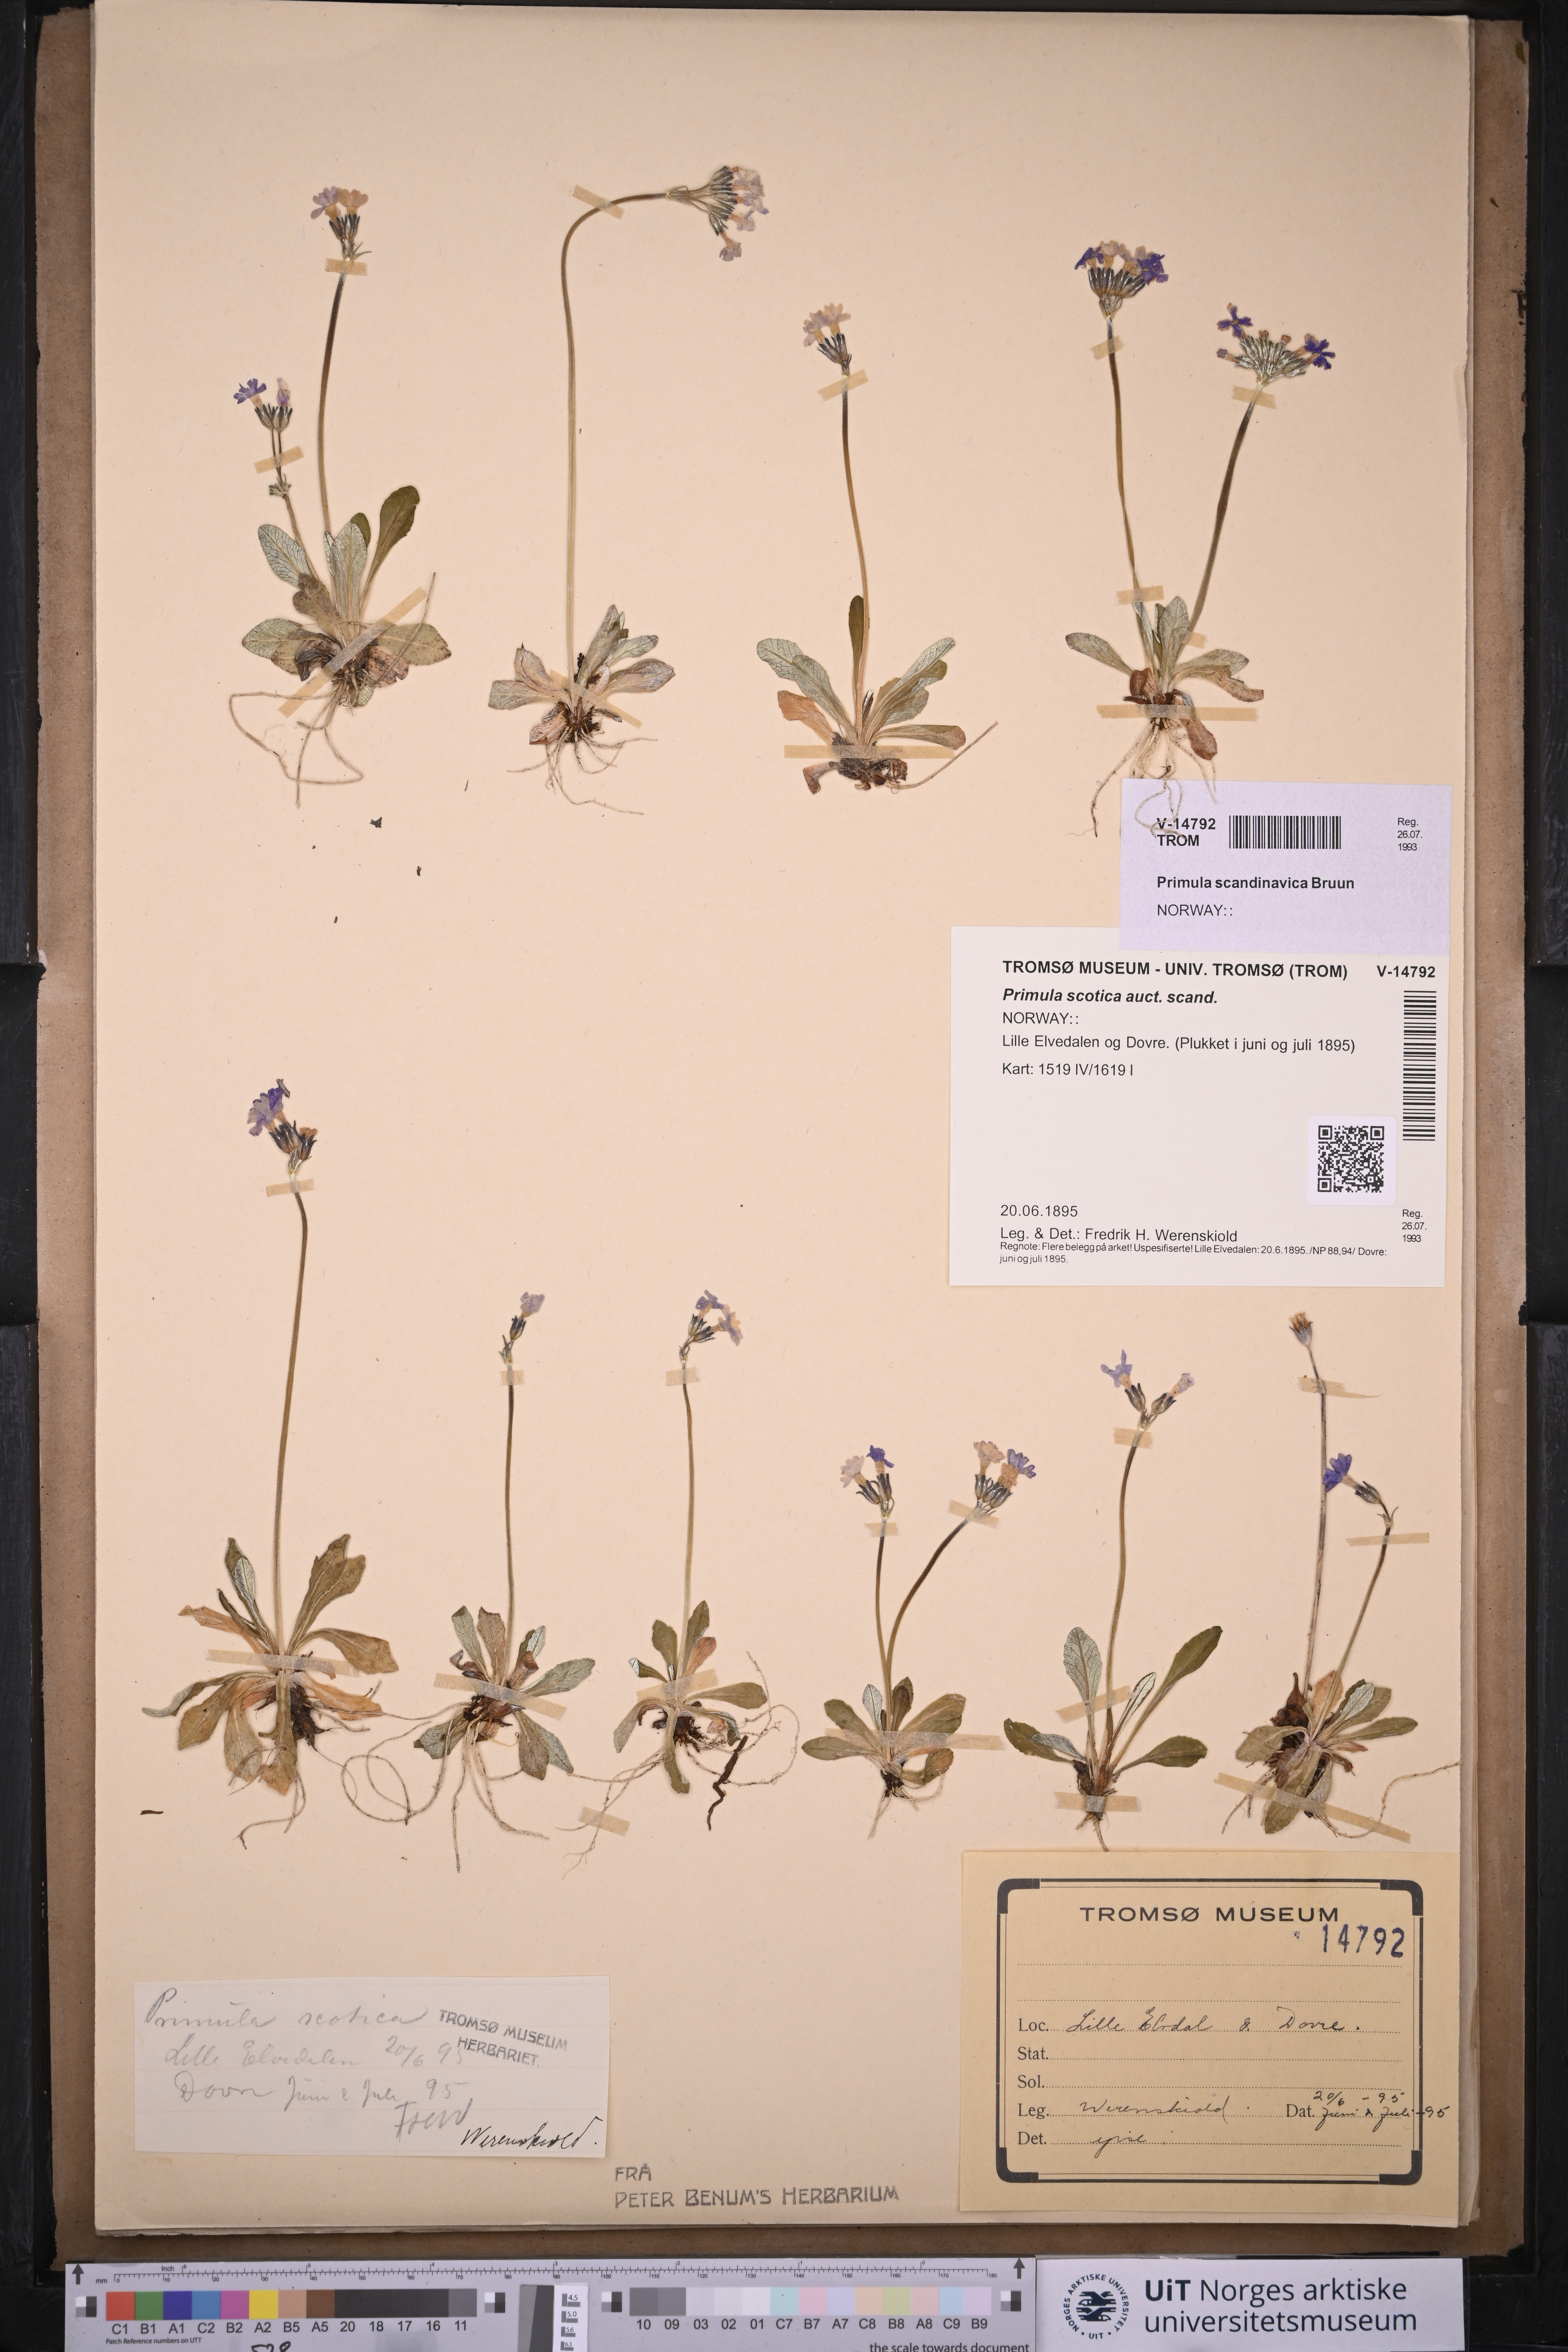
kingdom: Plantae
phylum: Tracheophyta
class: Magnoliopsida
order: Ericales
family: Primulaceae
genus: Primula
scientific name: Primula scandinavica
